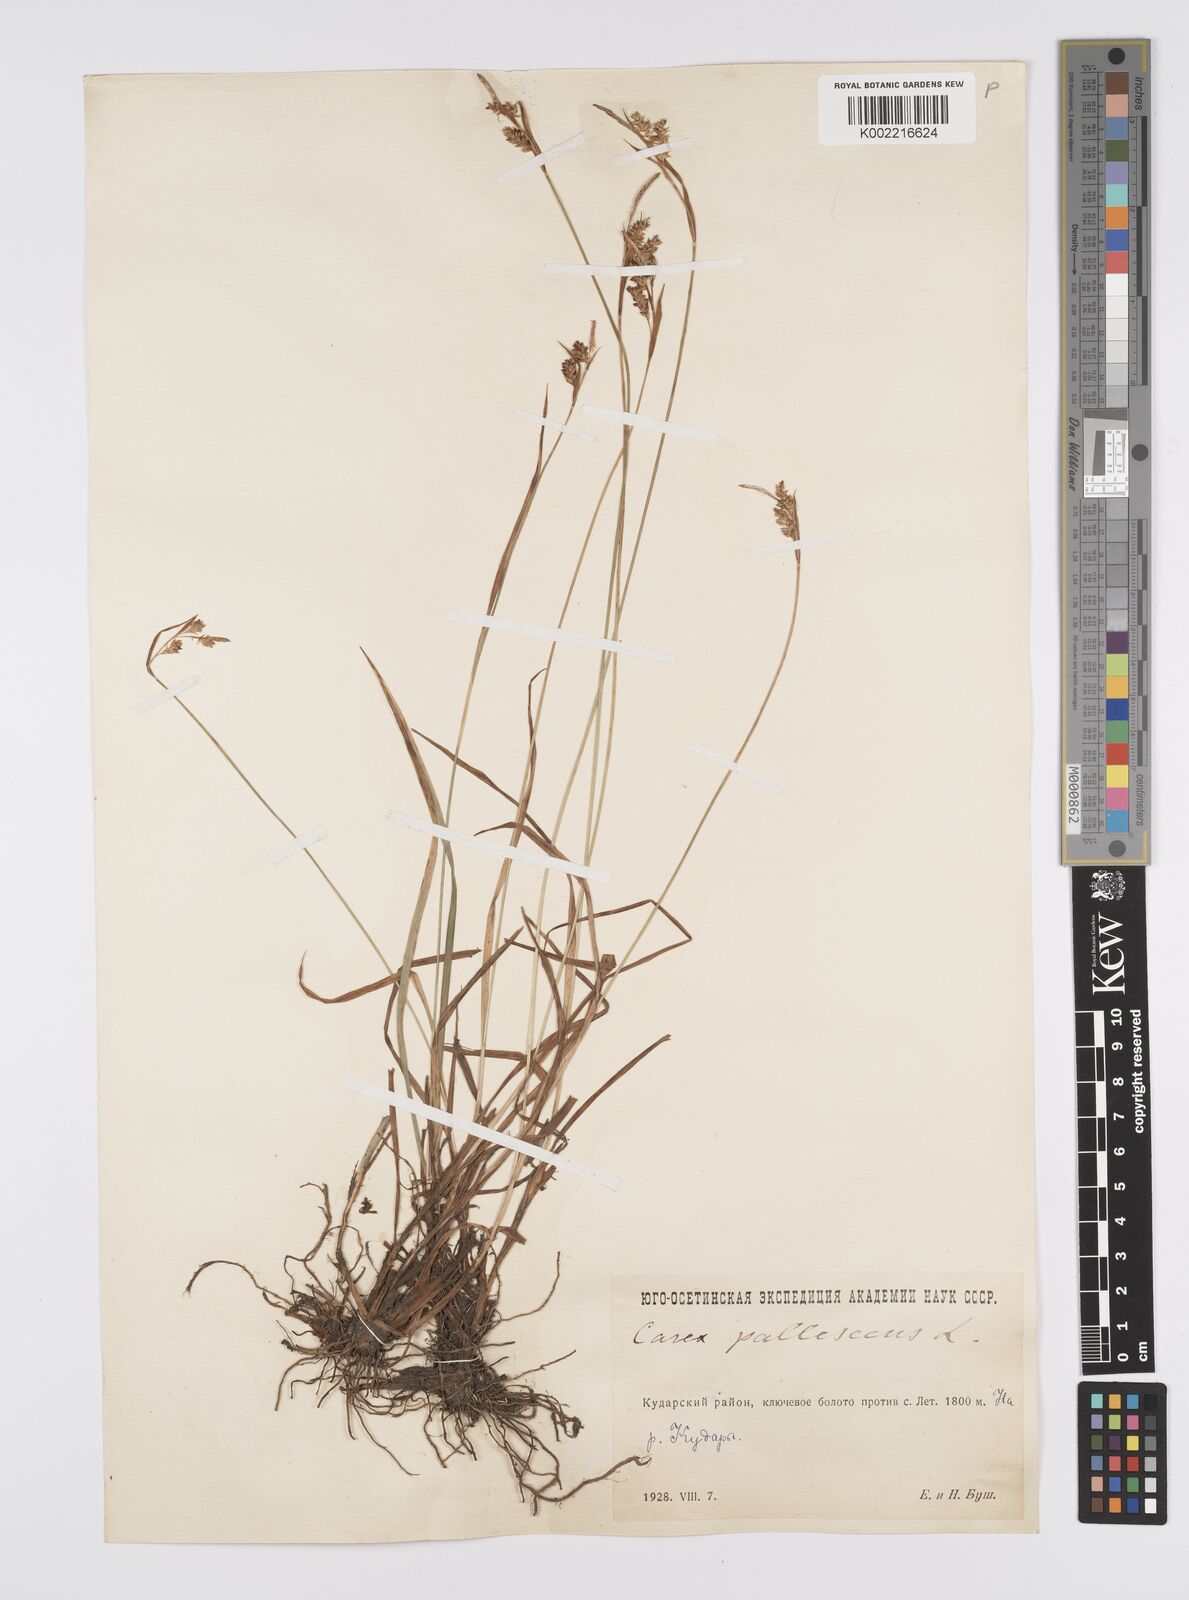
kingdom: Plantae
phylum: Tracheophyta
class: Liliopsida
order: Poales
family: Cyperaceae
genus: Carex
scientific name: Carex pallescens
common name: Pale sedge
